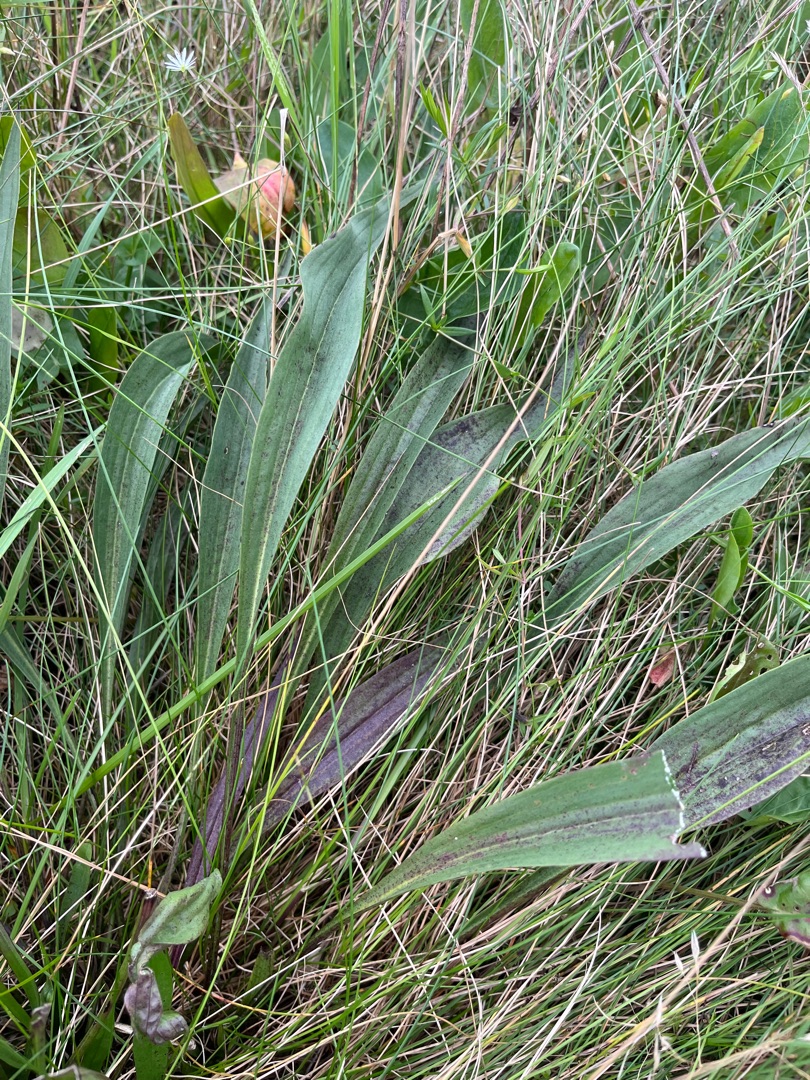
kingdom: Plantae
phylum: Tracheophyta
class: Magnoliopsida
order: Asterales
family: Asteraceae
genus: Scorzonera
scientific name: Scorzonera humilis
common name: Lav skorsoner
